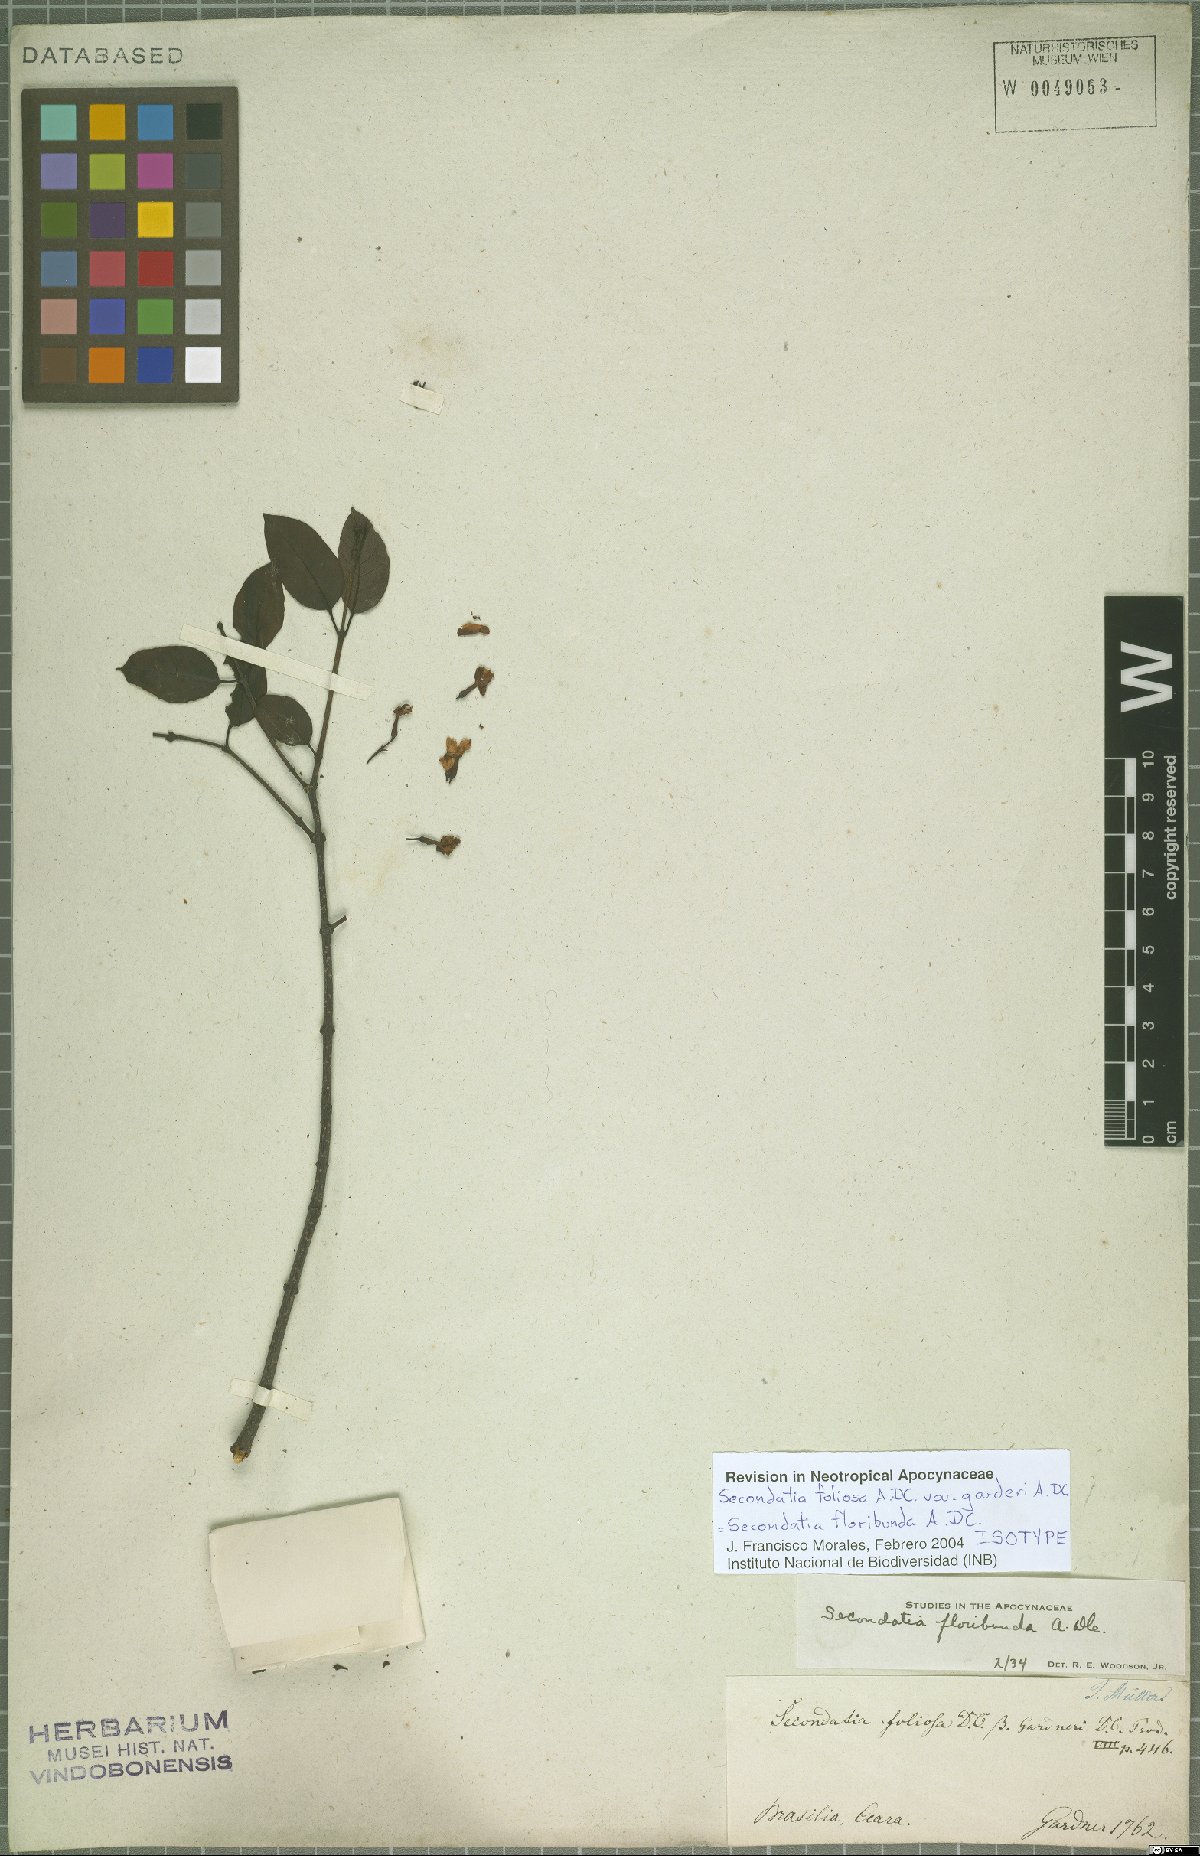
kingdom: Plantae
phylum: Tracheophyta
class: Magnoliopsida
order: Gentianales
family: Apocynaceae
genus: Secondatia
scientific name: Secondatia floribunda
